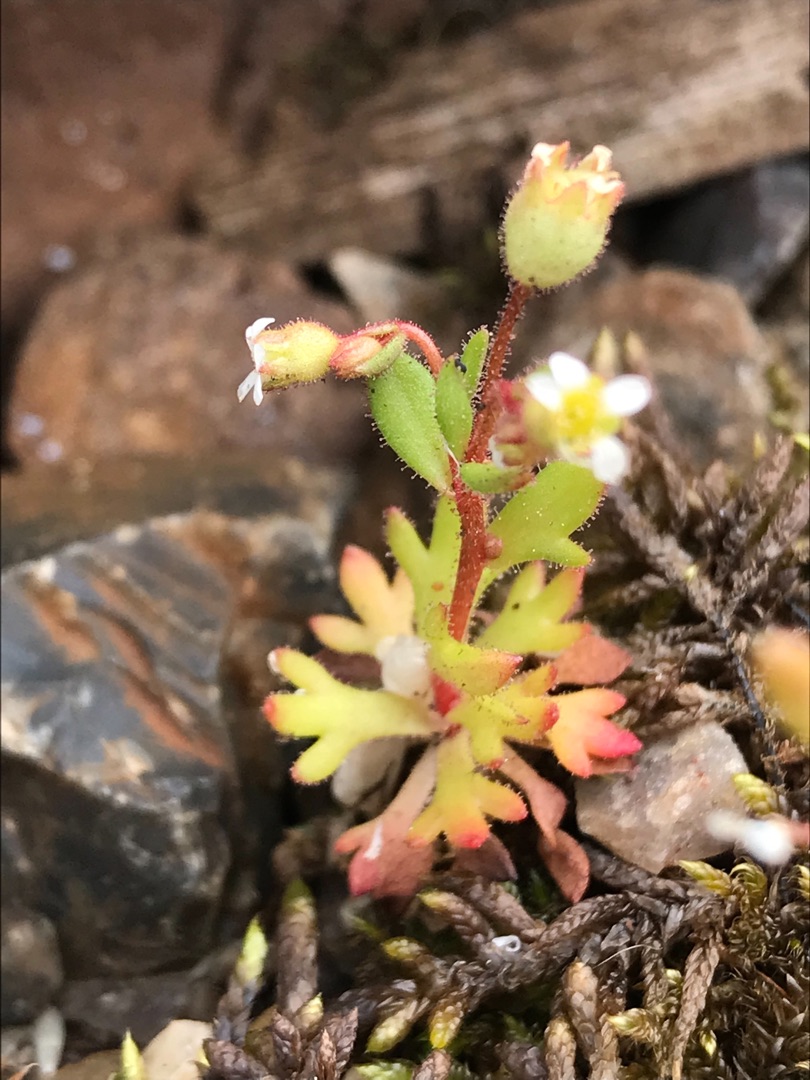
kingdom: Plantae
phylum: Tracheophyta
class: Magnoliopsida
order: Saxifragales
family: Saxifragaceae
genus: Saxifraga
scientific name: Saxifraga tridactylites
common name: Trekløft-stenbræk
